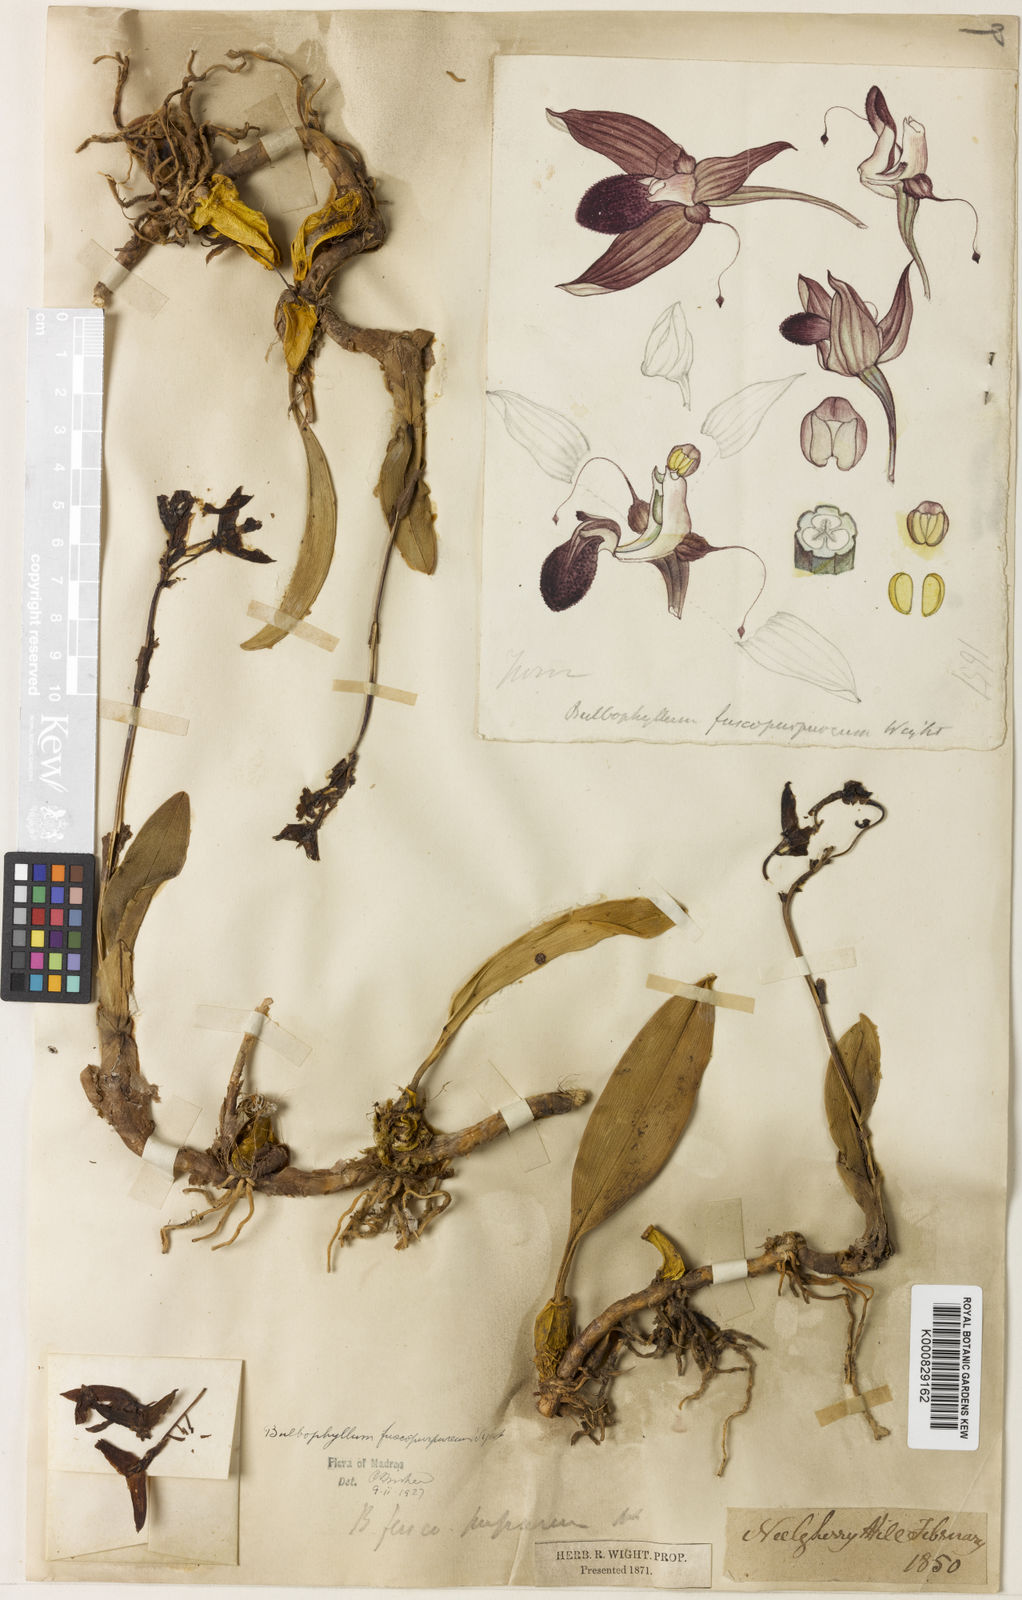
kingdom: Plantae
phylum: Tracheophyta
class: Liliopsida
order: Asparagales
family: Orchidaceae
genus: Bulbophyllum
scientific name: Bulbophyllum fuscopurpureum
